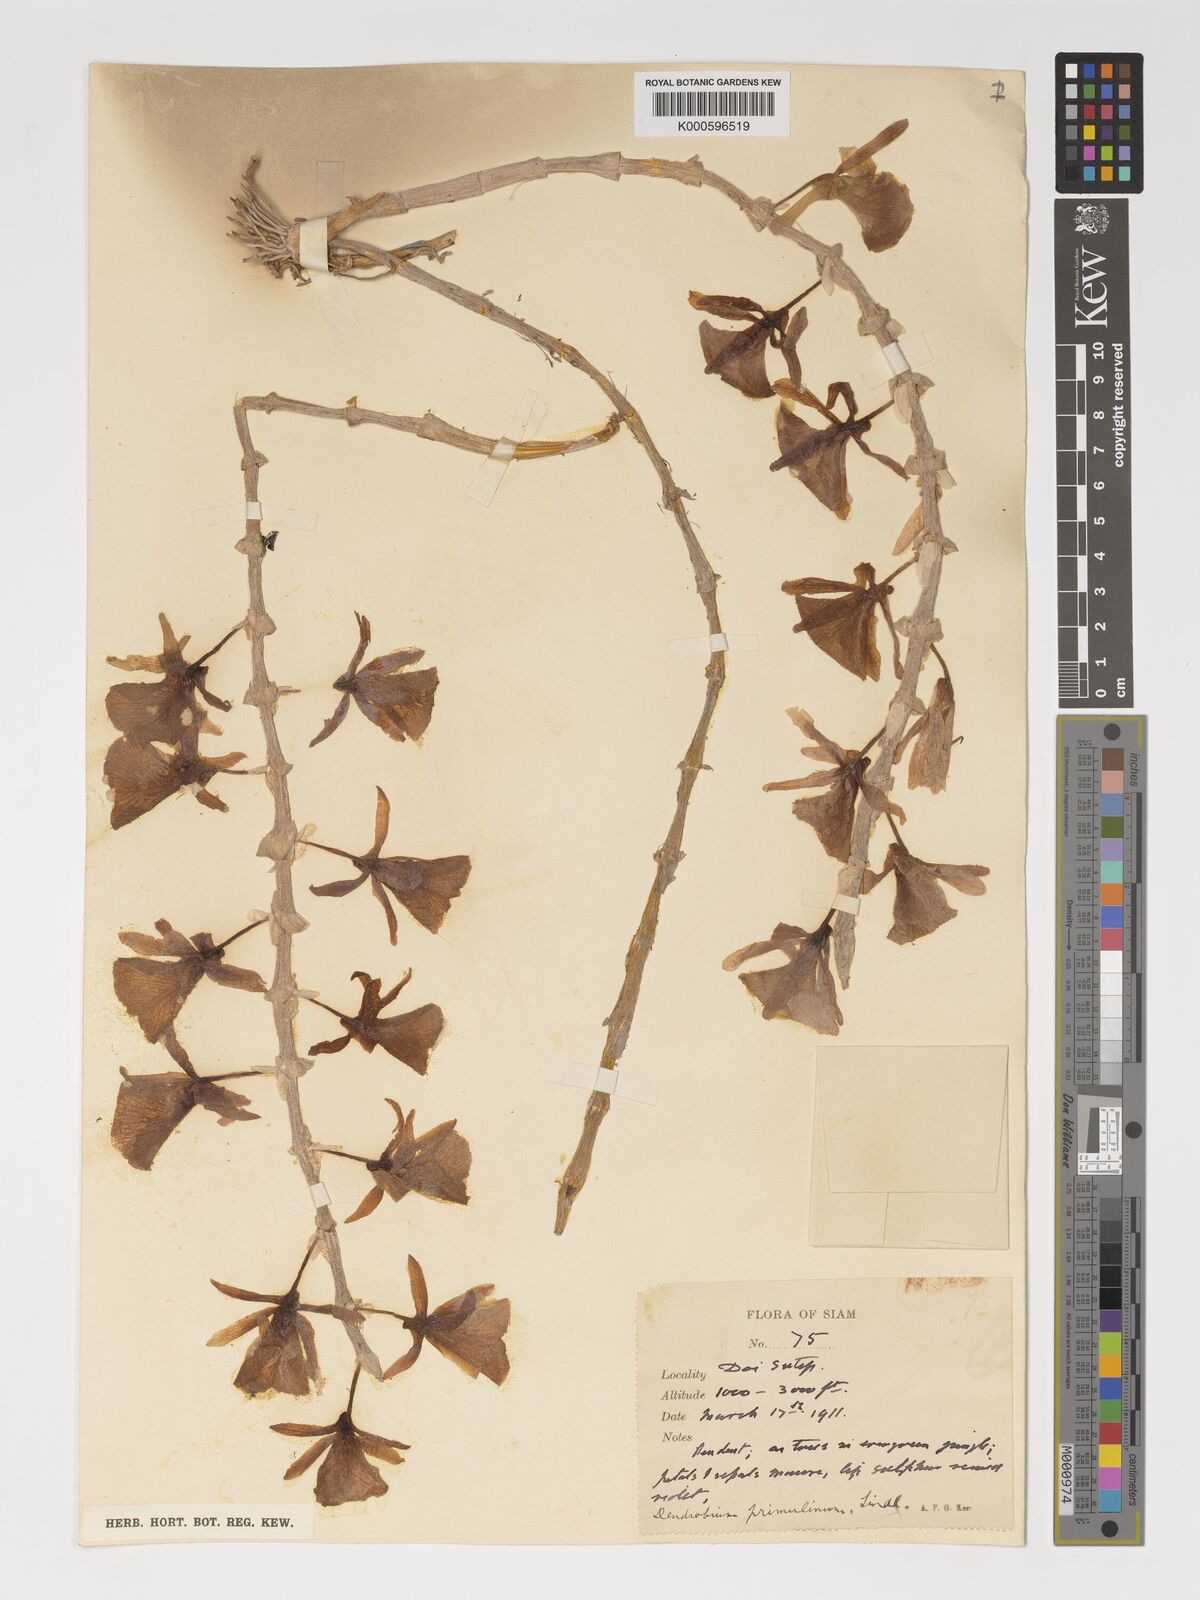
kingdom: Plantae
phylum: Tracheophyta
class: Liliopsida
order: Asparagales
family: Orchidaceae
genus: Dendrobium
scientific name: Dendrobium polyanthum
